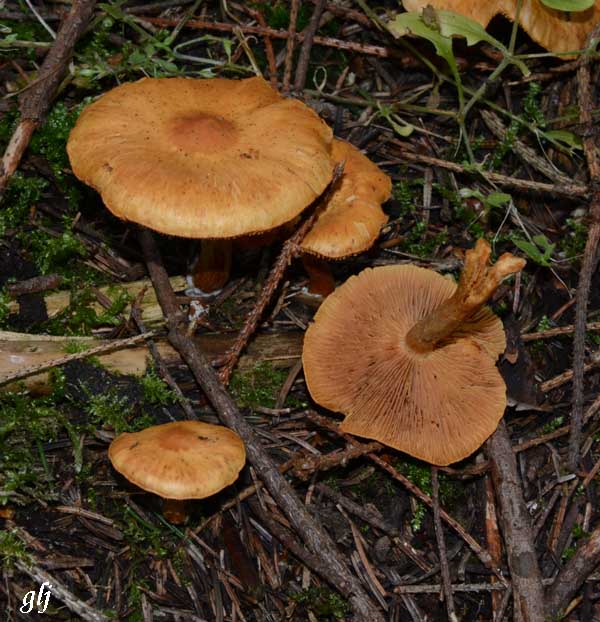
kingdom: Fungi
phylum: Basidiomycota
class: Agaricomycetes
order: Agaricales
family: Hymenogastraceae
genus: Gymnopilus
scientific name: Gymnopilus penetrans
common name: plettet flammehat
